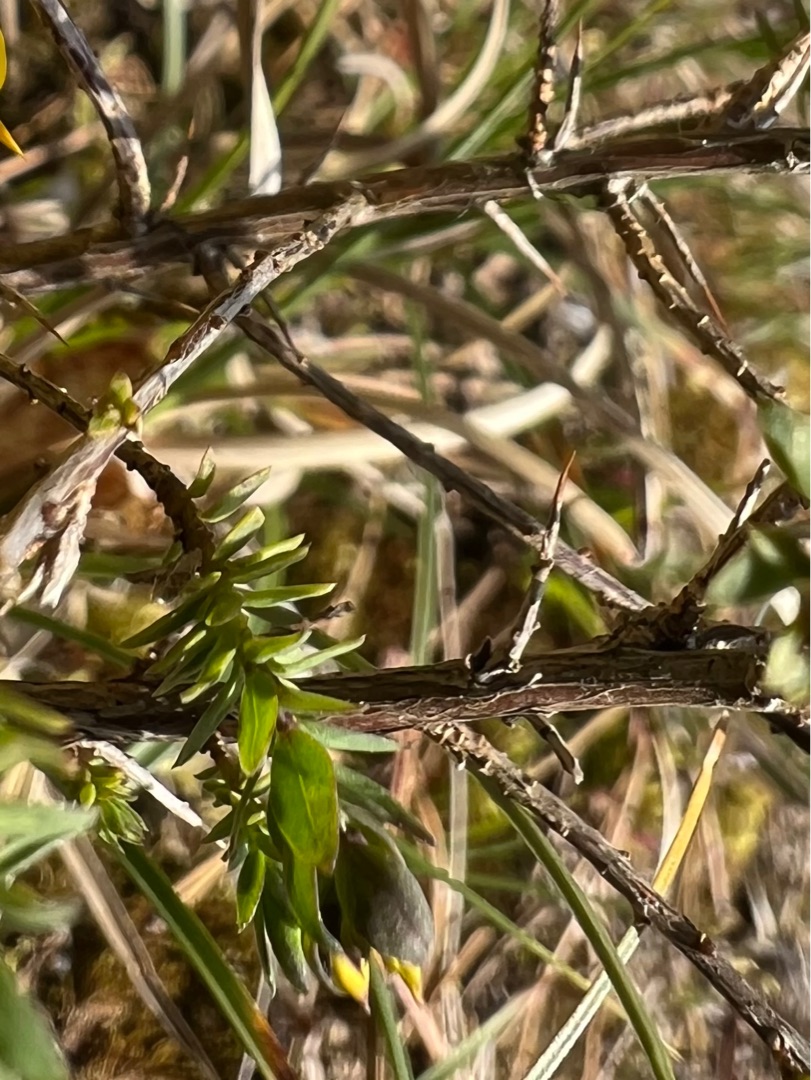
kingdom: Plantae
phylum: Tracheophyta
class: Magnoliopsida
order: Fabales
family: Fabaceae
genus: Genista
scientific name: Genista anglica
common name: Engelsk visse
